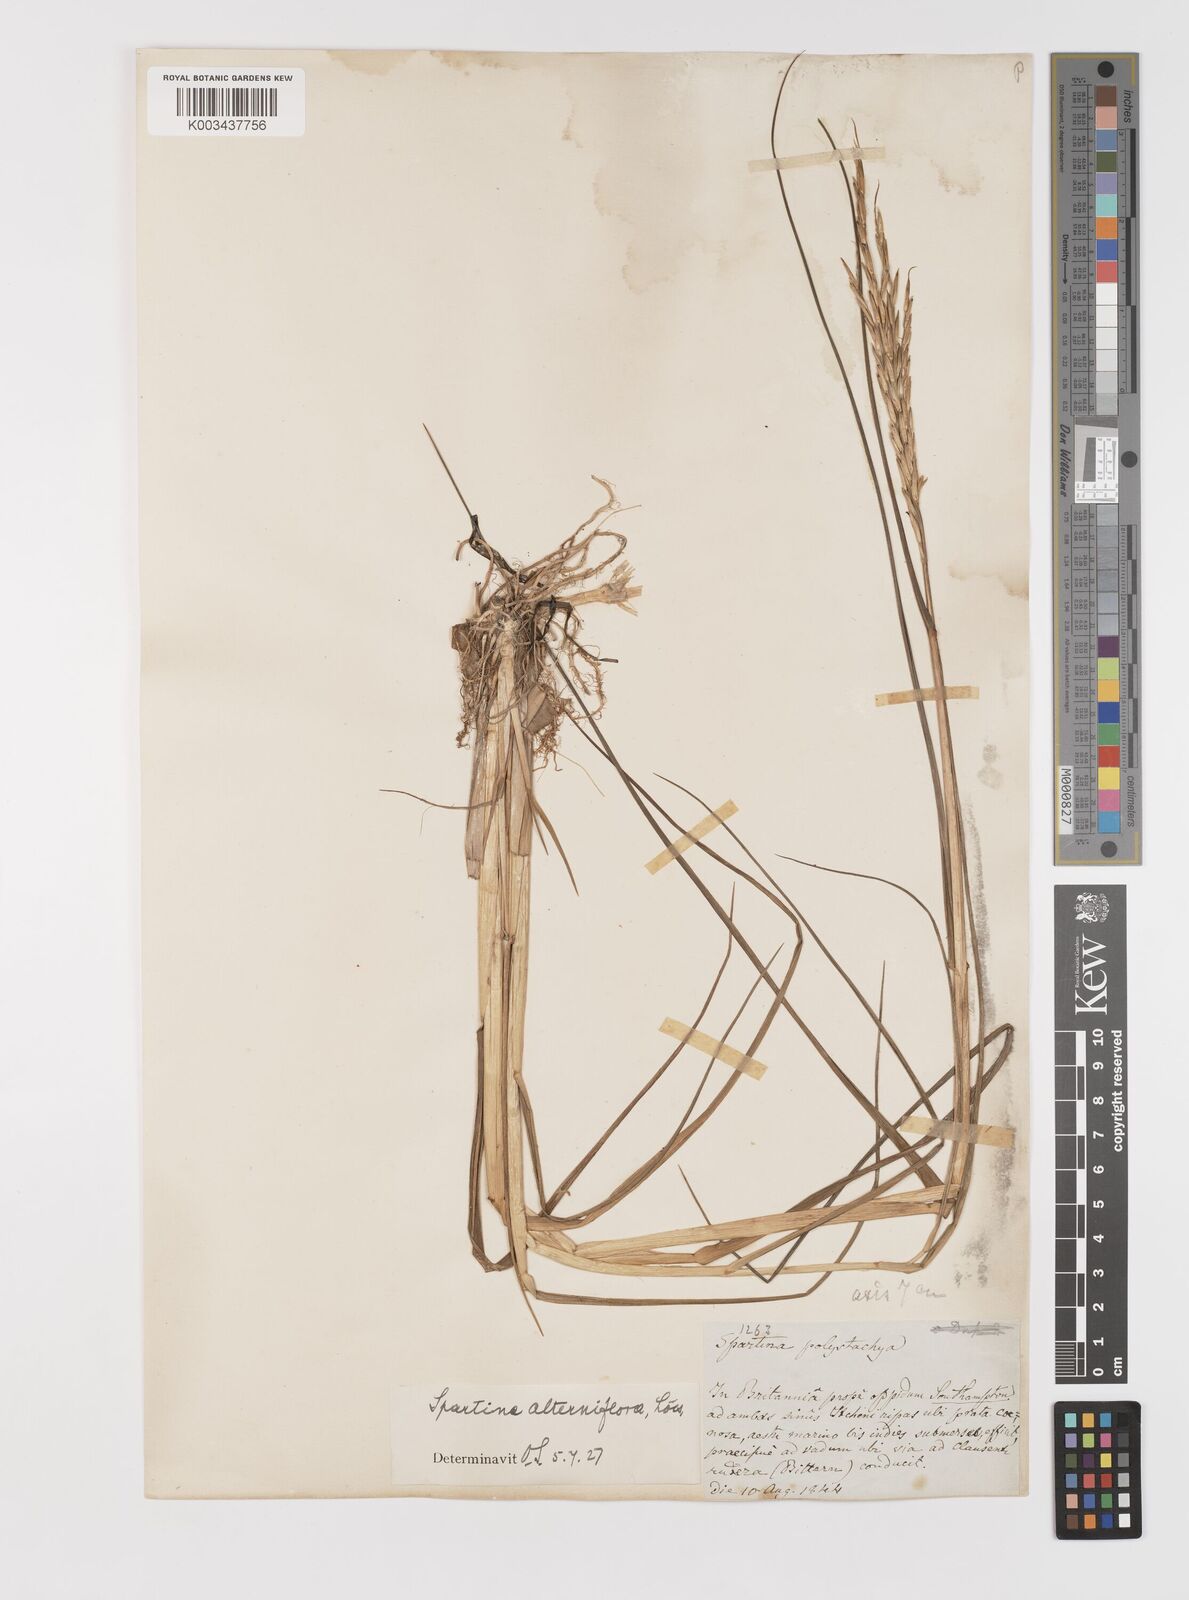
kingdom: Plantae
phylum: Tracheophyta
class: Liliopsida
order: Poales
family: Poaceae
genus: Sporobolus
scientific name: Sporobolus alterniflorus
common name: Atlantic cordgrass
